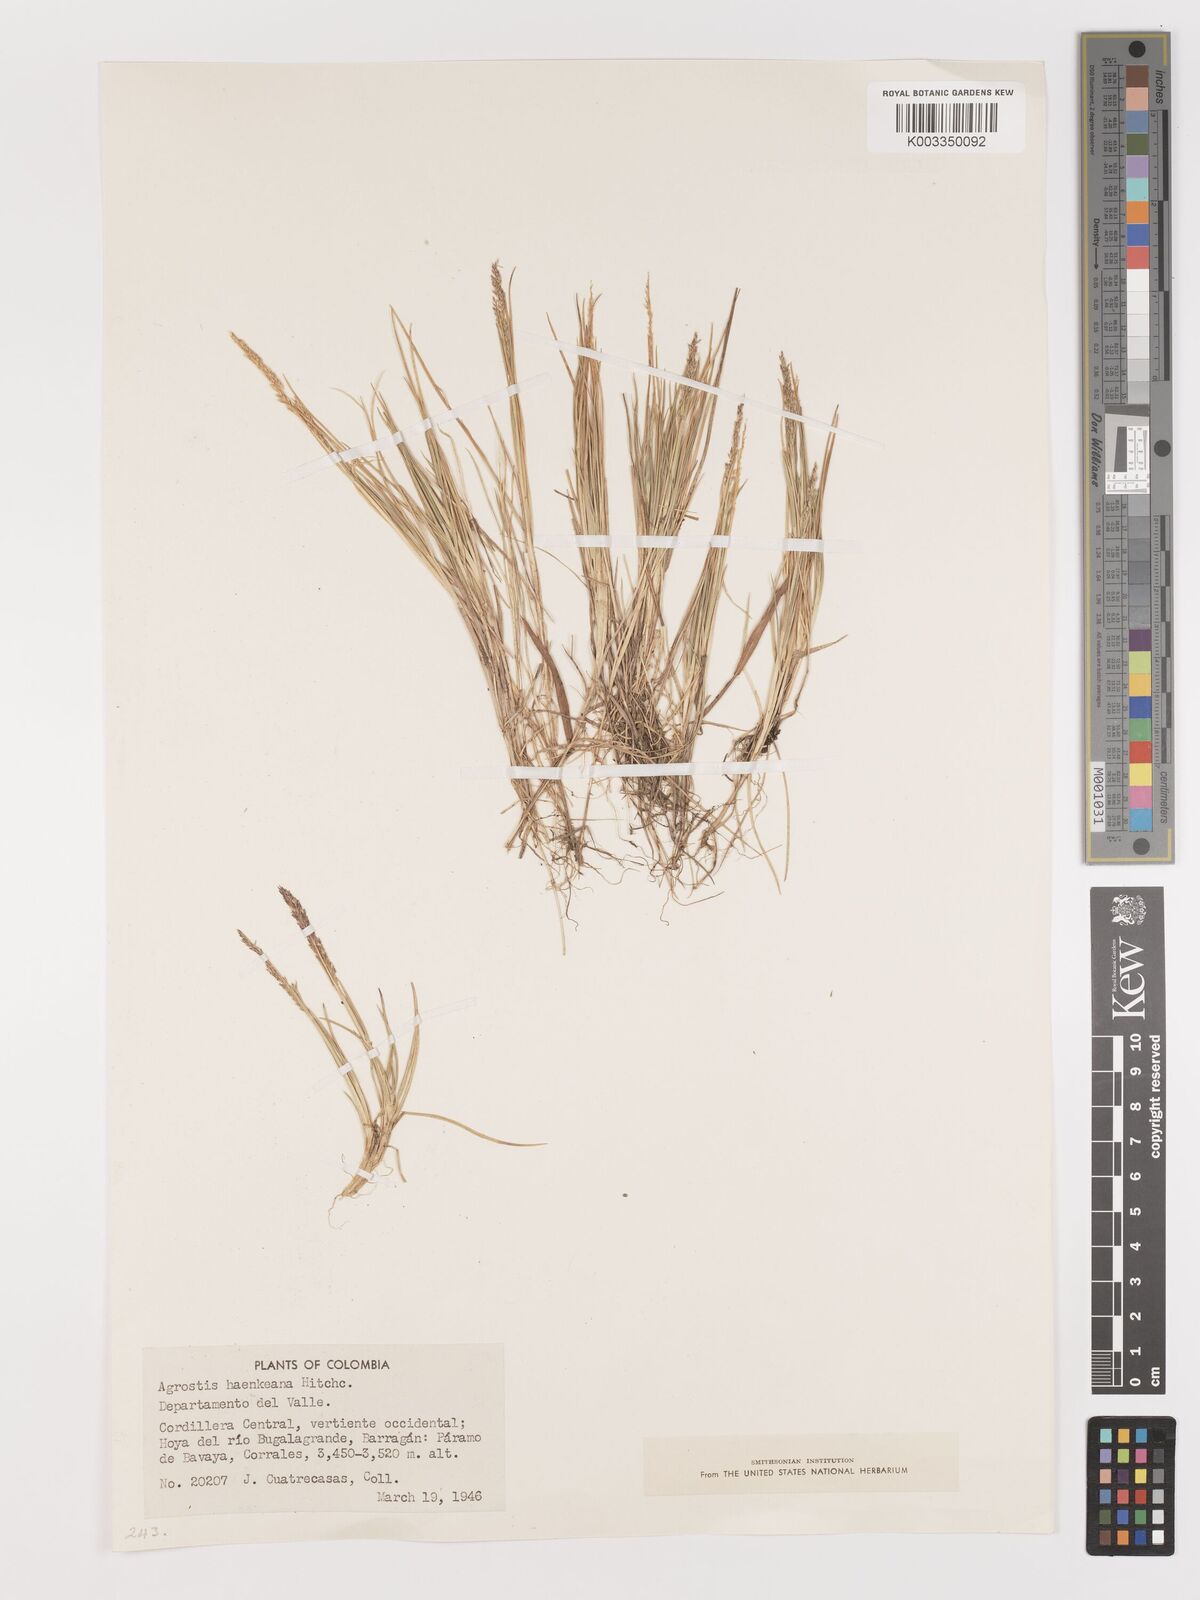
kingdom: Plantae
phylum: Tracheophyta
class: Liliopsida
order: Poales
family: Poaceae
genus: Agrostis
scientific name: Agrostis
